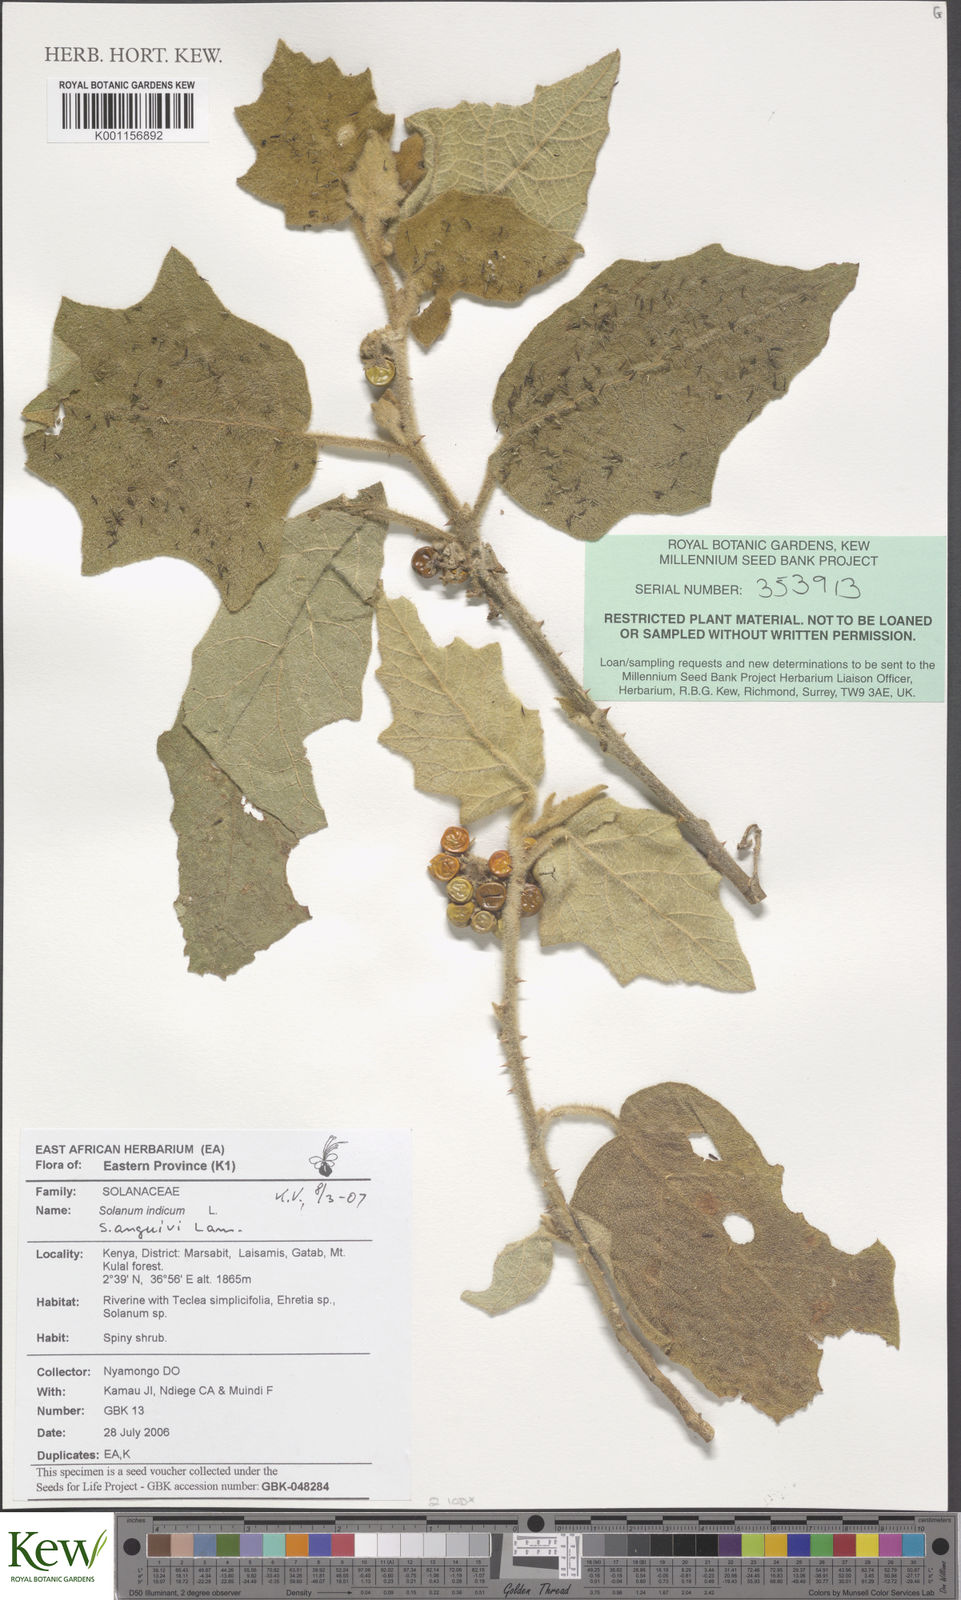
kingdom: Plantae
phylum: Tracheophyta
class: Magnoliopsida
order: Solanales
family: Solanaceae
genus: Solanum
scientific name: Solanum anguivi
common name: Forest bitterberry
